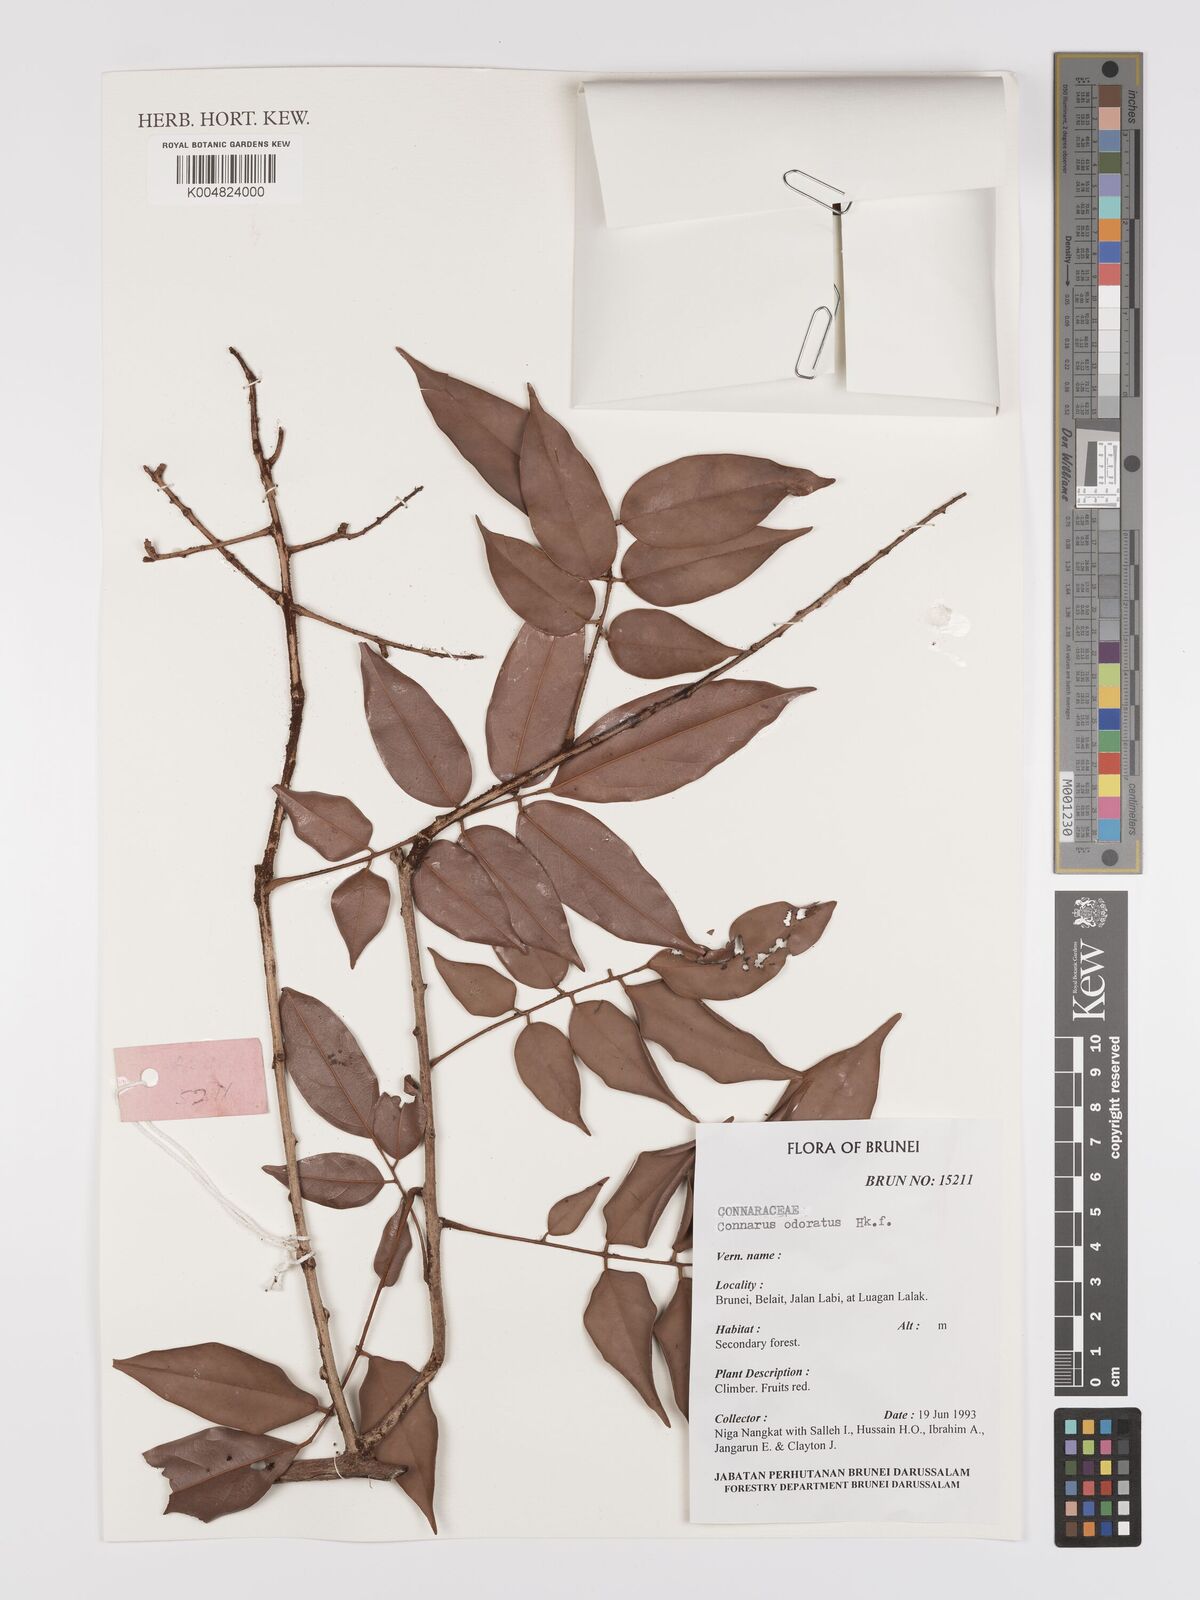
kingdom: Plantae
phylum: Tracheophyta
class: Magnoliopsida
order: Oxalidales
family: Connaraceae
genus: Connarus
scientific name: Connarus odoratus
